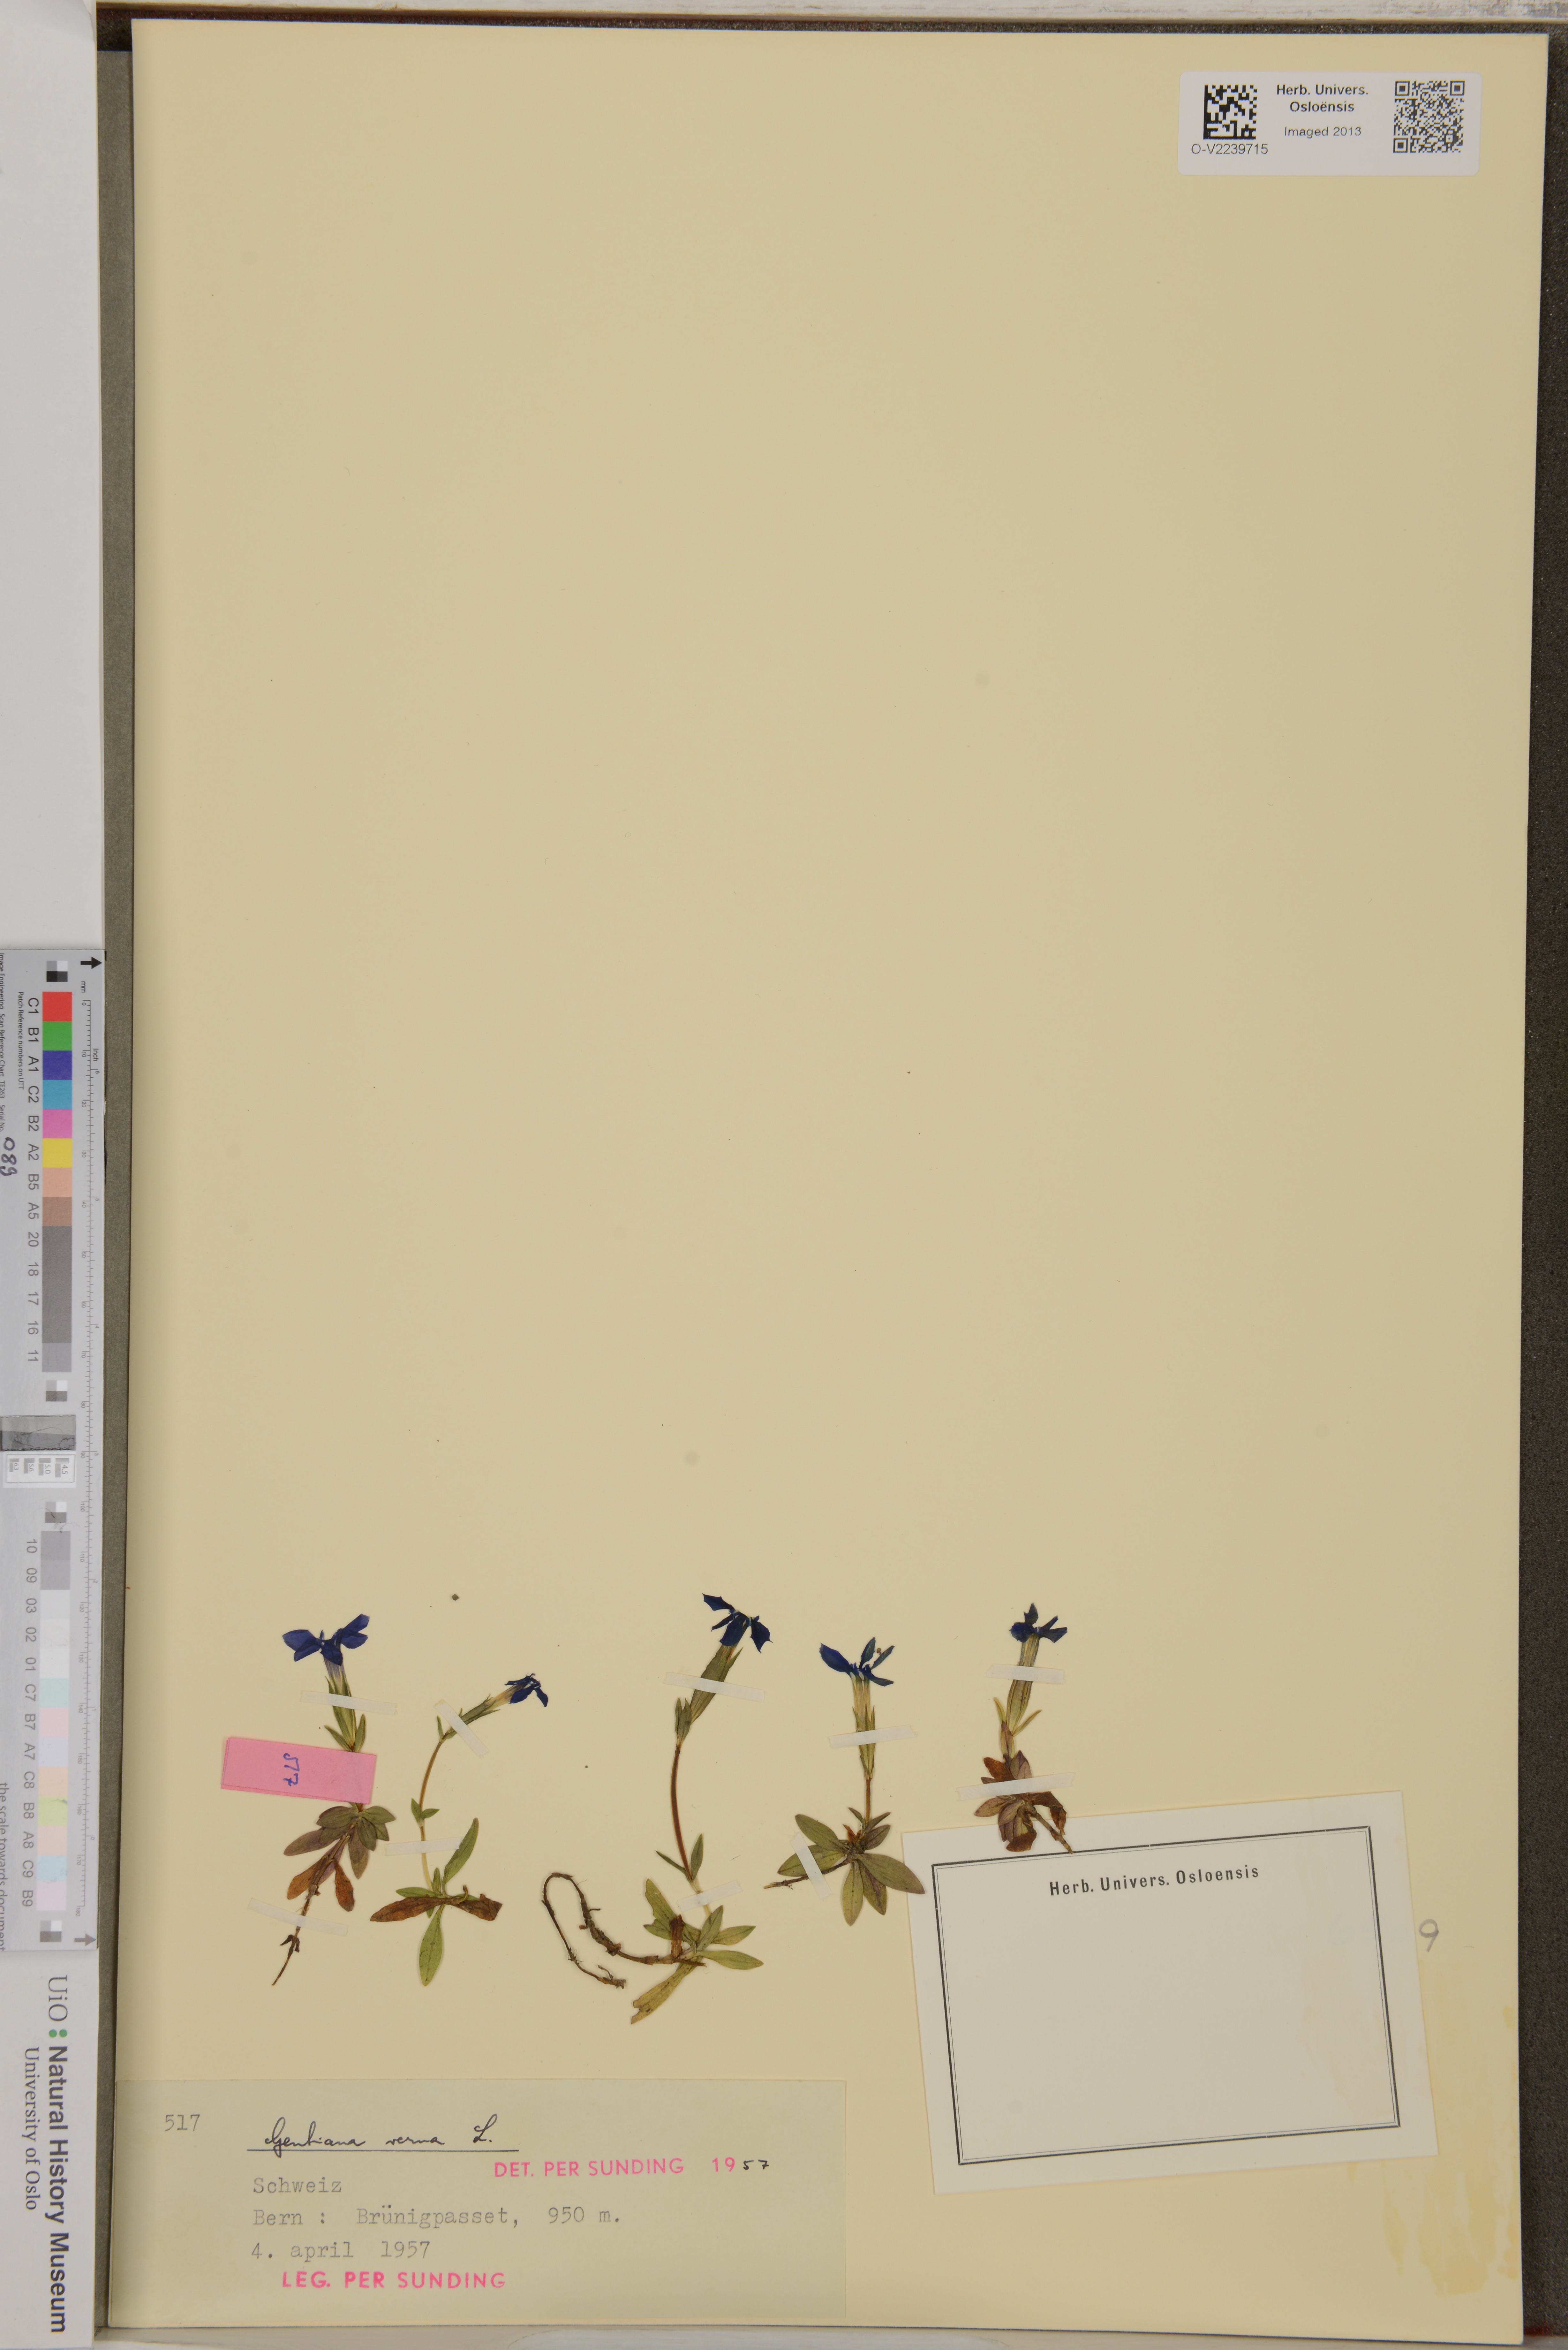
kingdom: Plantae
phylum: Tracheophyta
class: Magnoliopsida
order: Gentianales
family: Gentianaceae
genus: Gentiana
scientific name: Gentiana verna
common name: Spring gentian
